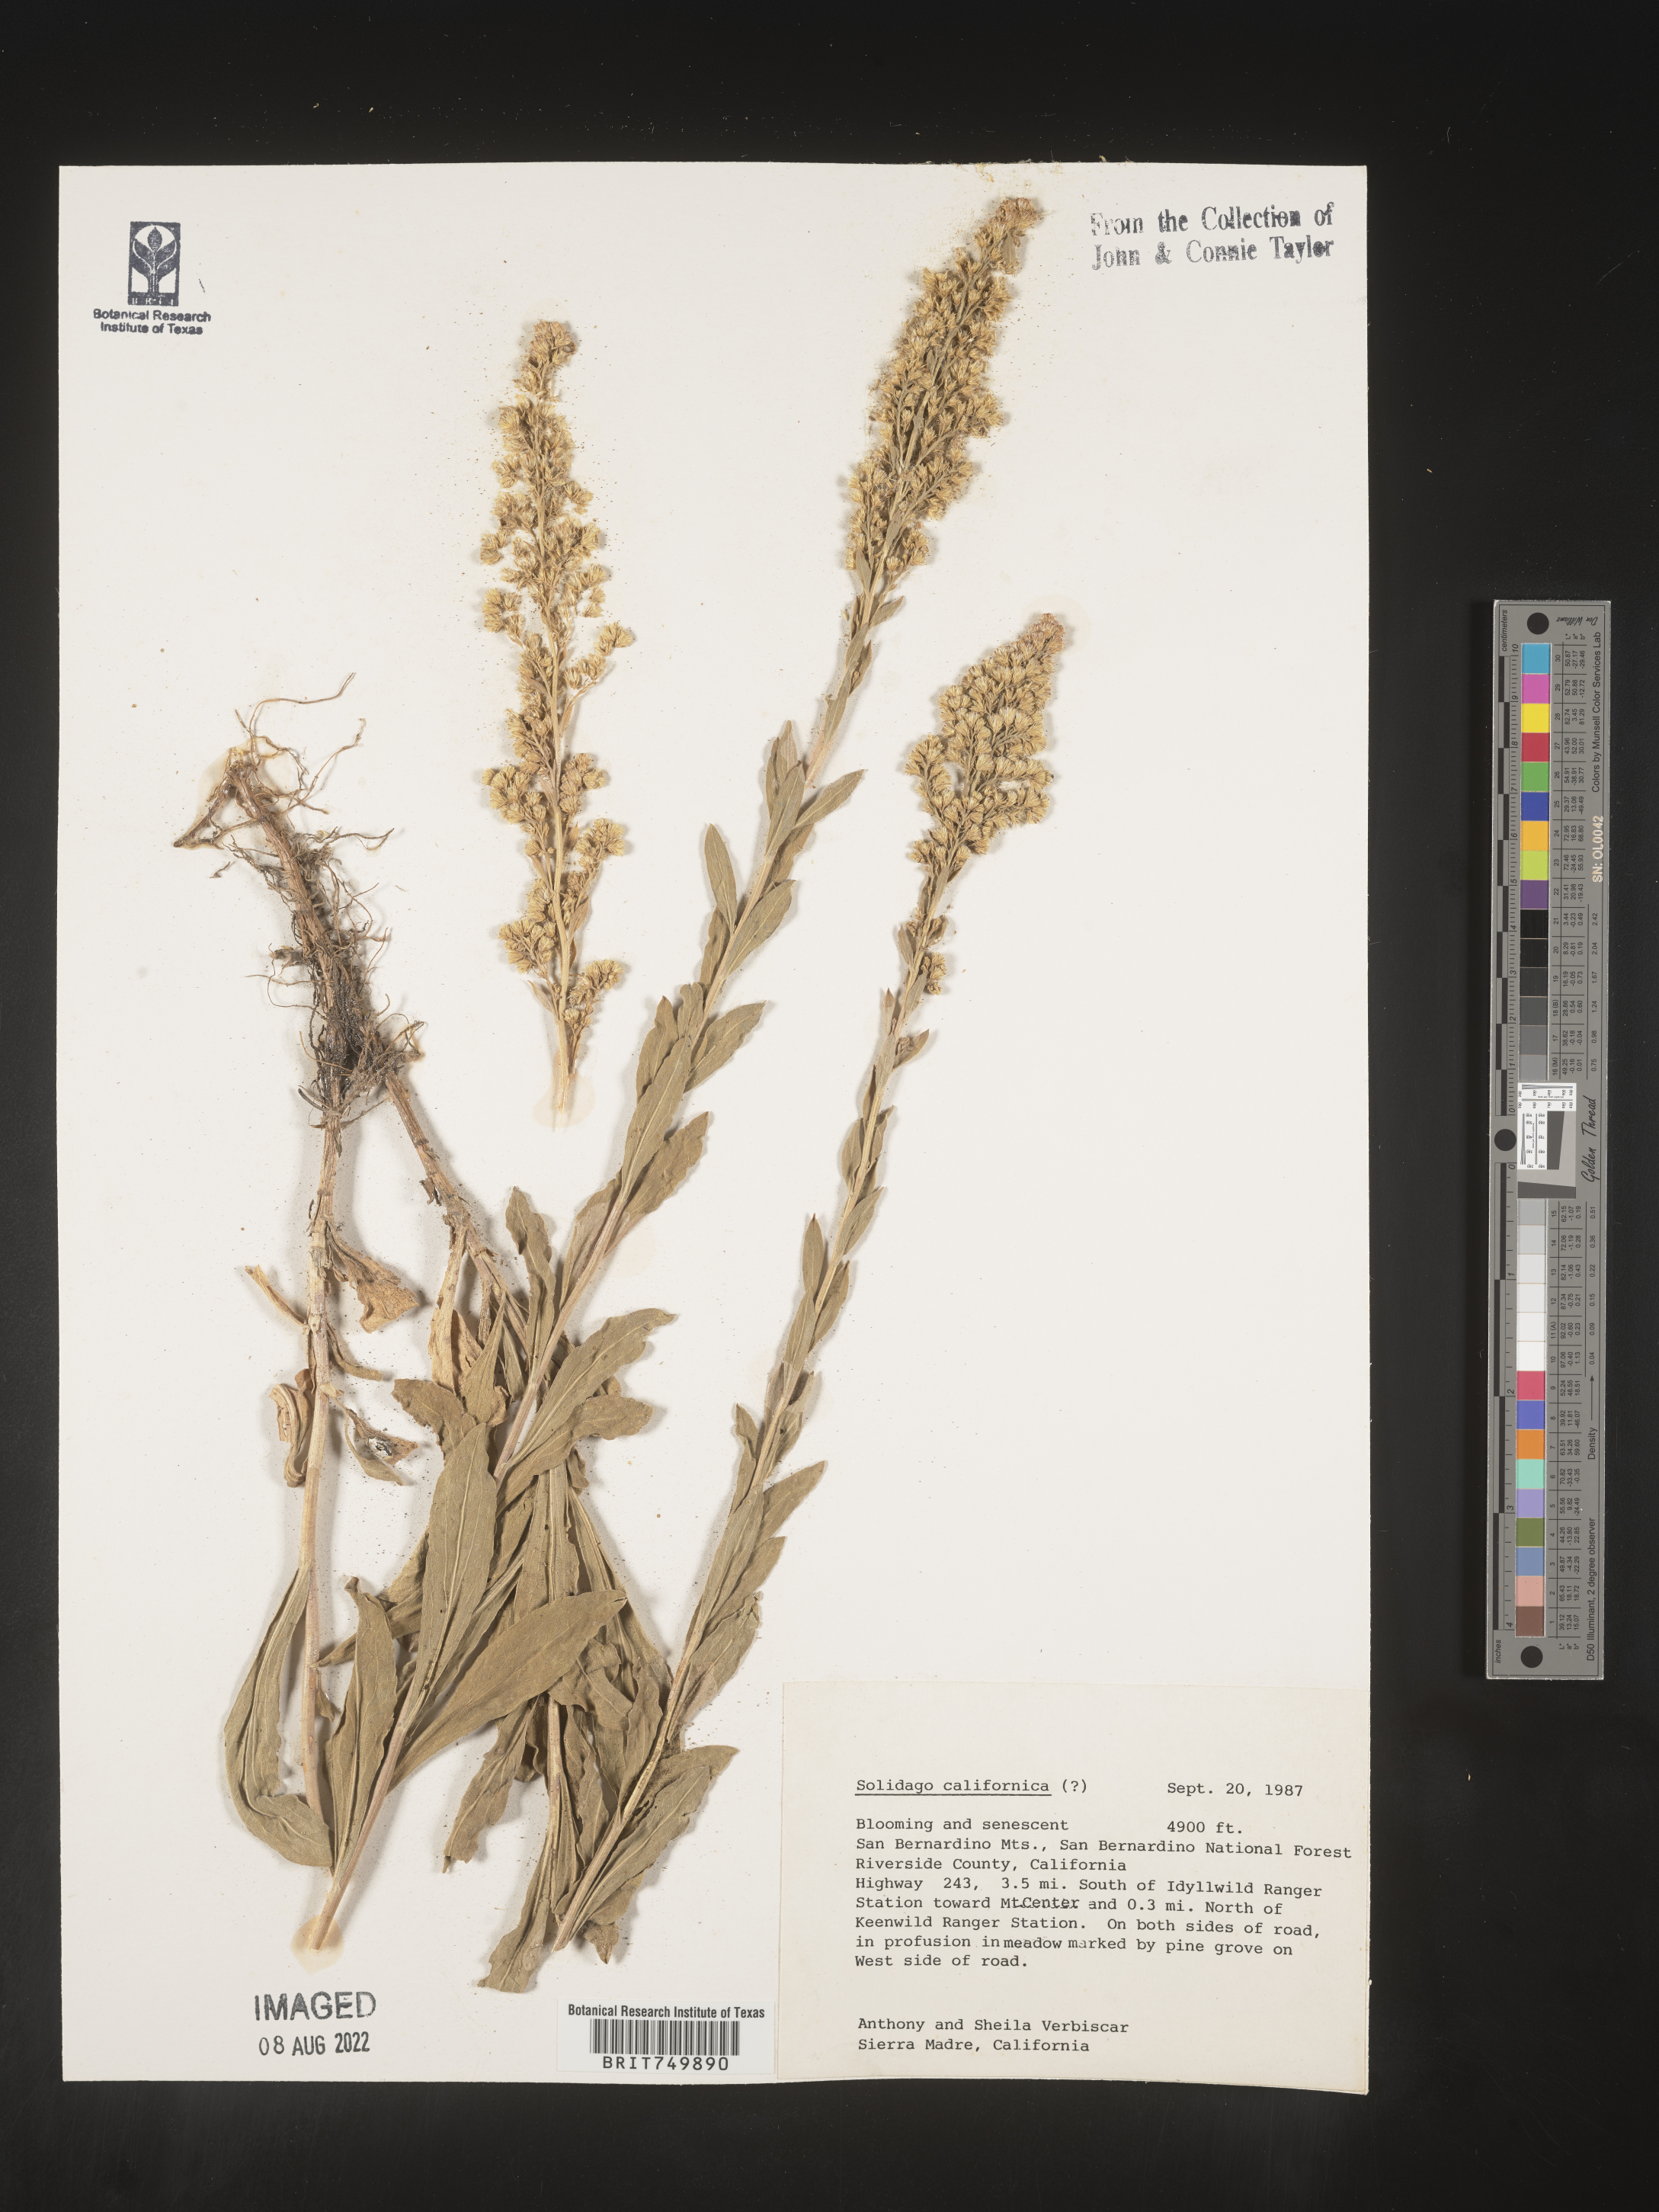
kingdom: Plantae
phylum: Tracheophyta
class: Magnoliopsida
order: Asterales
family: Asteraceae
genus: Solidago
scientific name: Solidago californica
